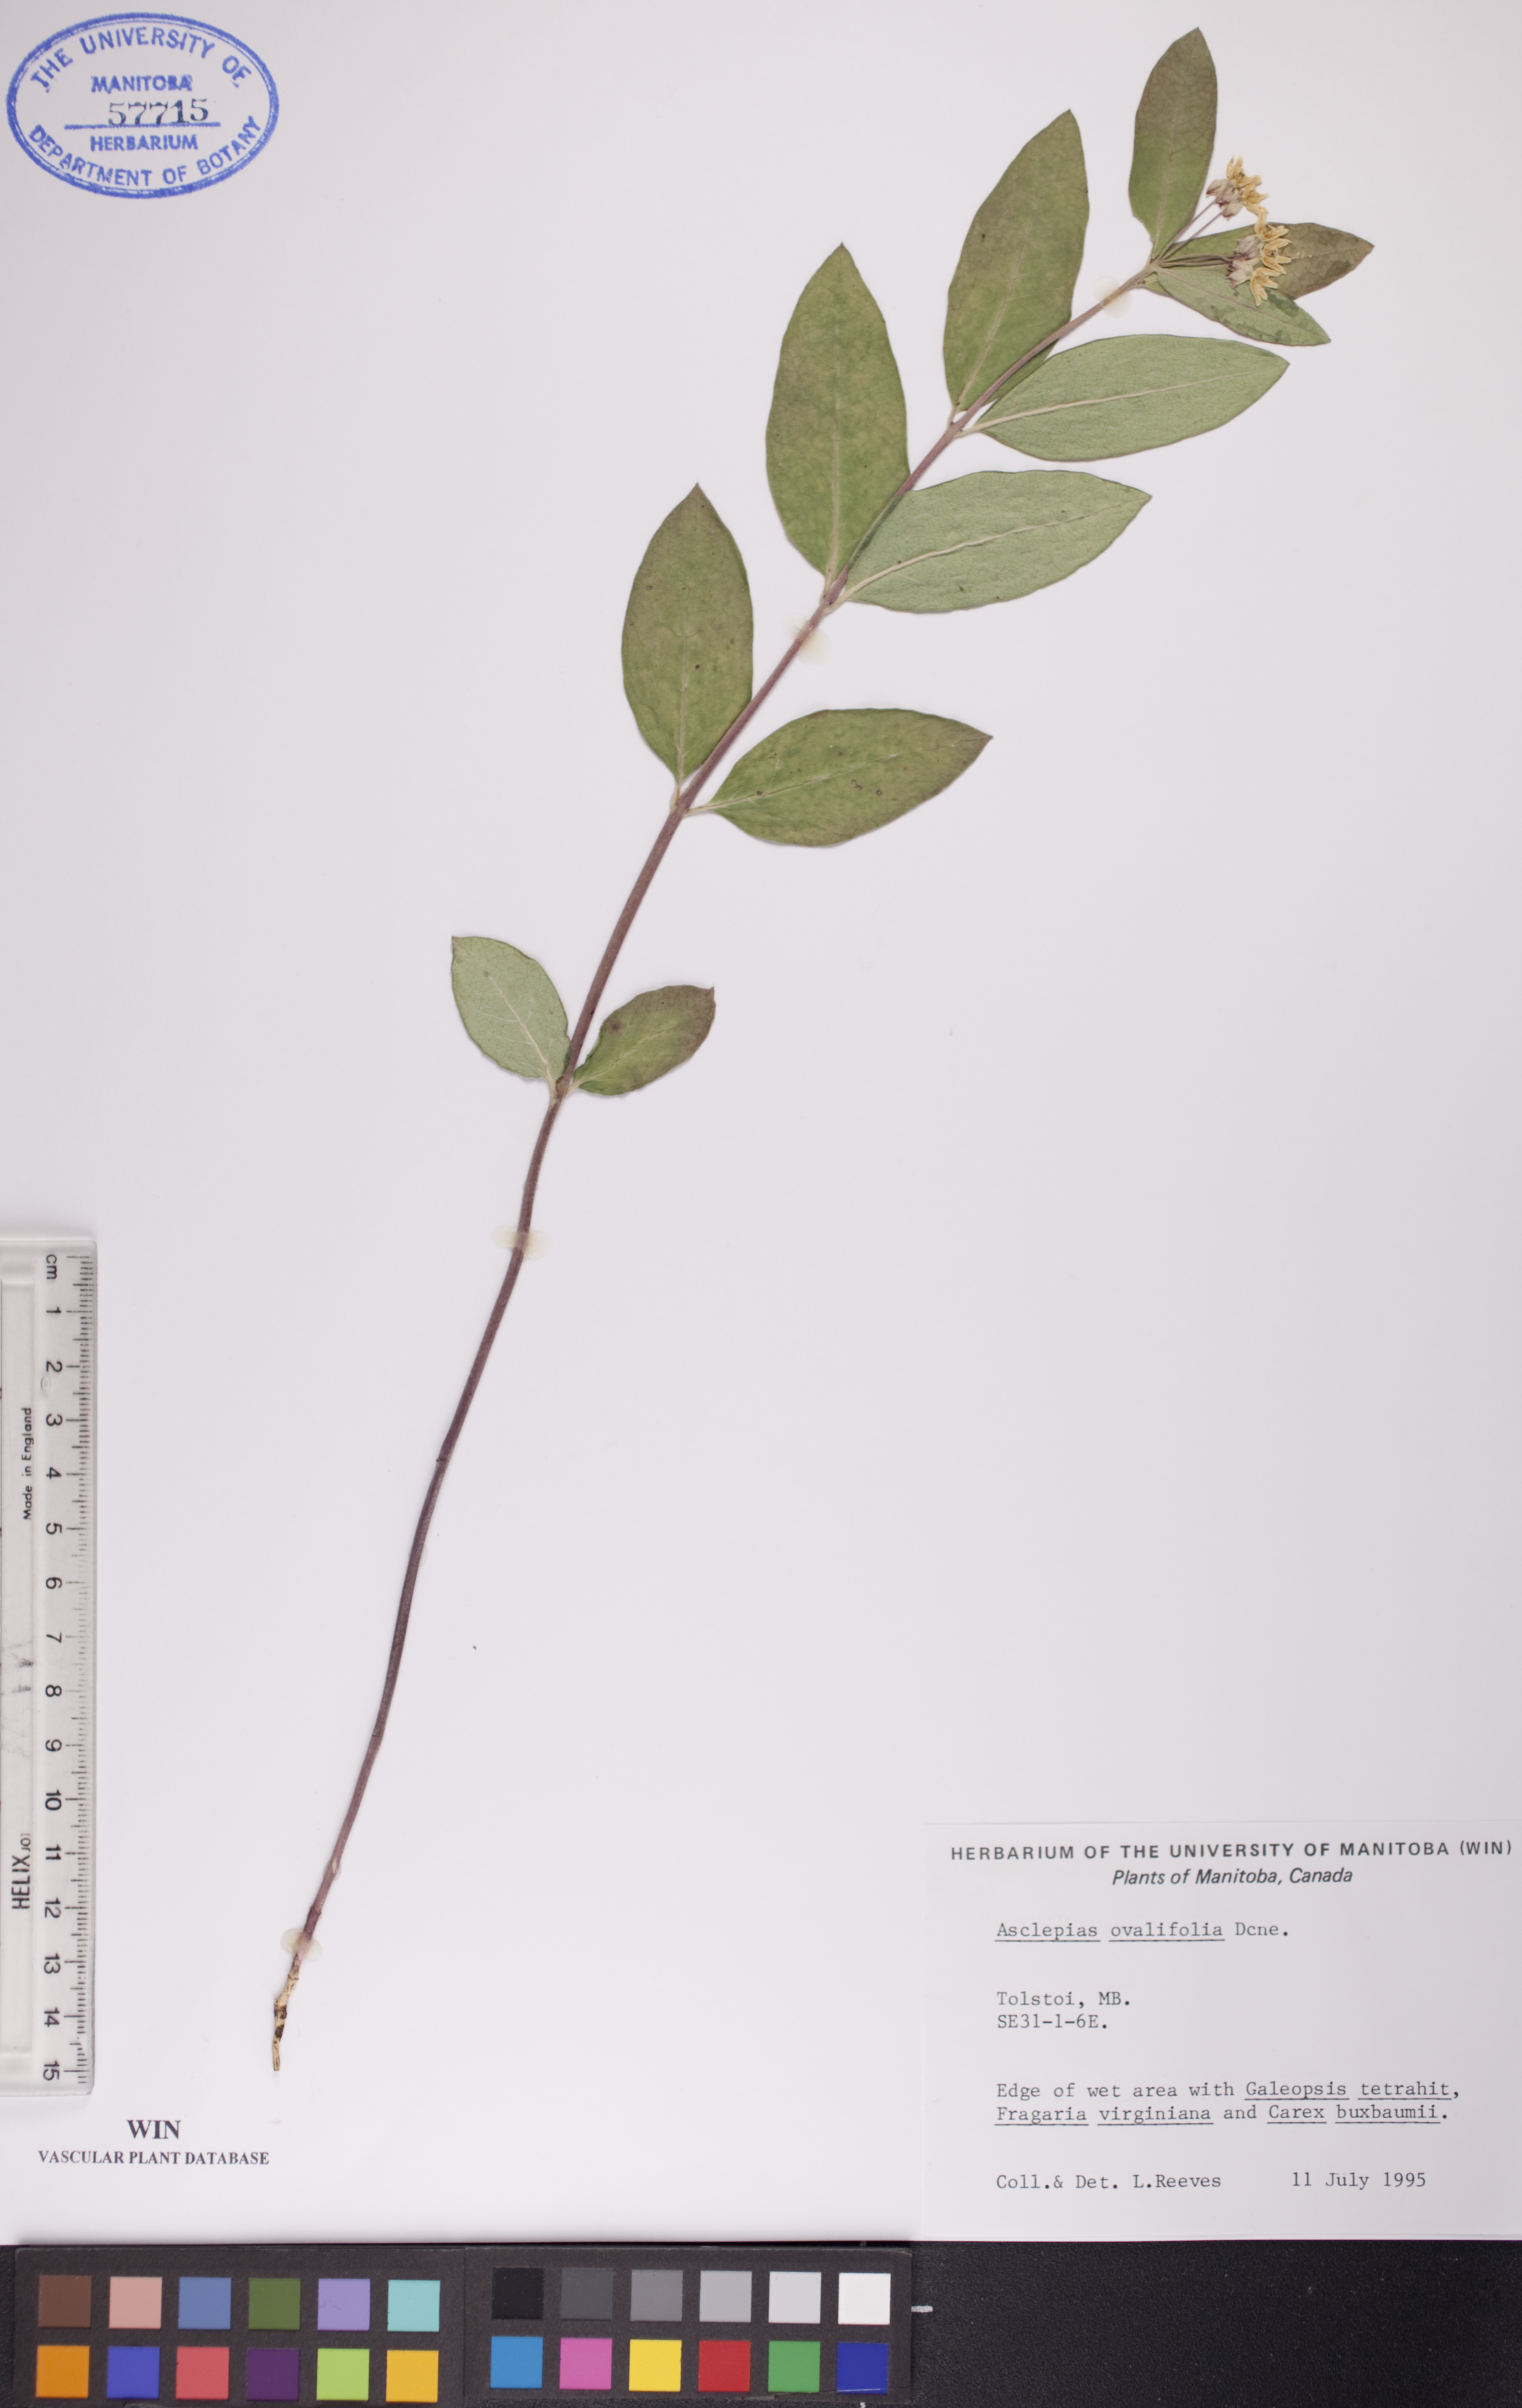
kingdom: Plantae
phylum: Tracheophyta
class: Magnoliopsida
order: Gentianales
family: Apocynaceae
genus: Asclepias
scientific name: Asclepias ovalifolia
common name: Dwarf milkweed
